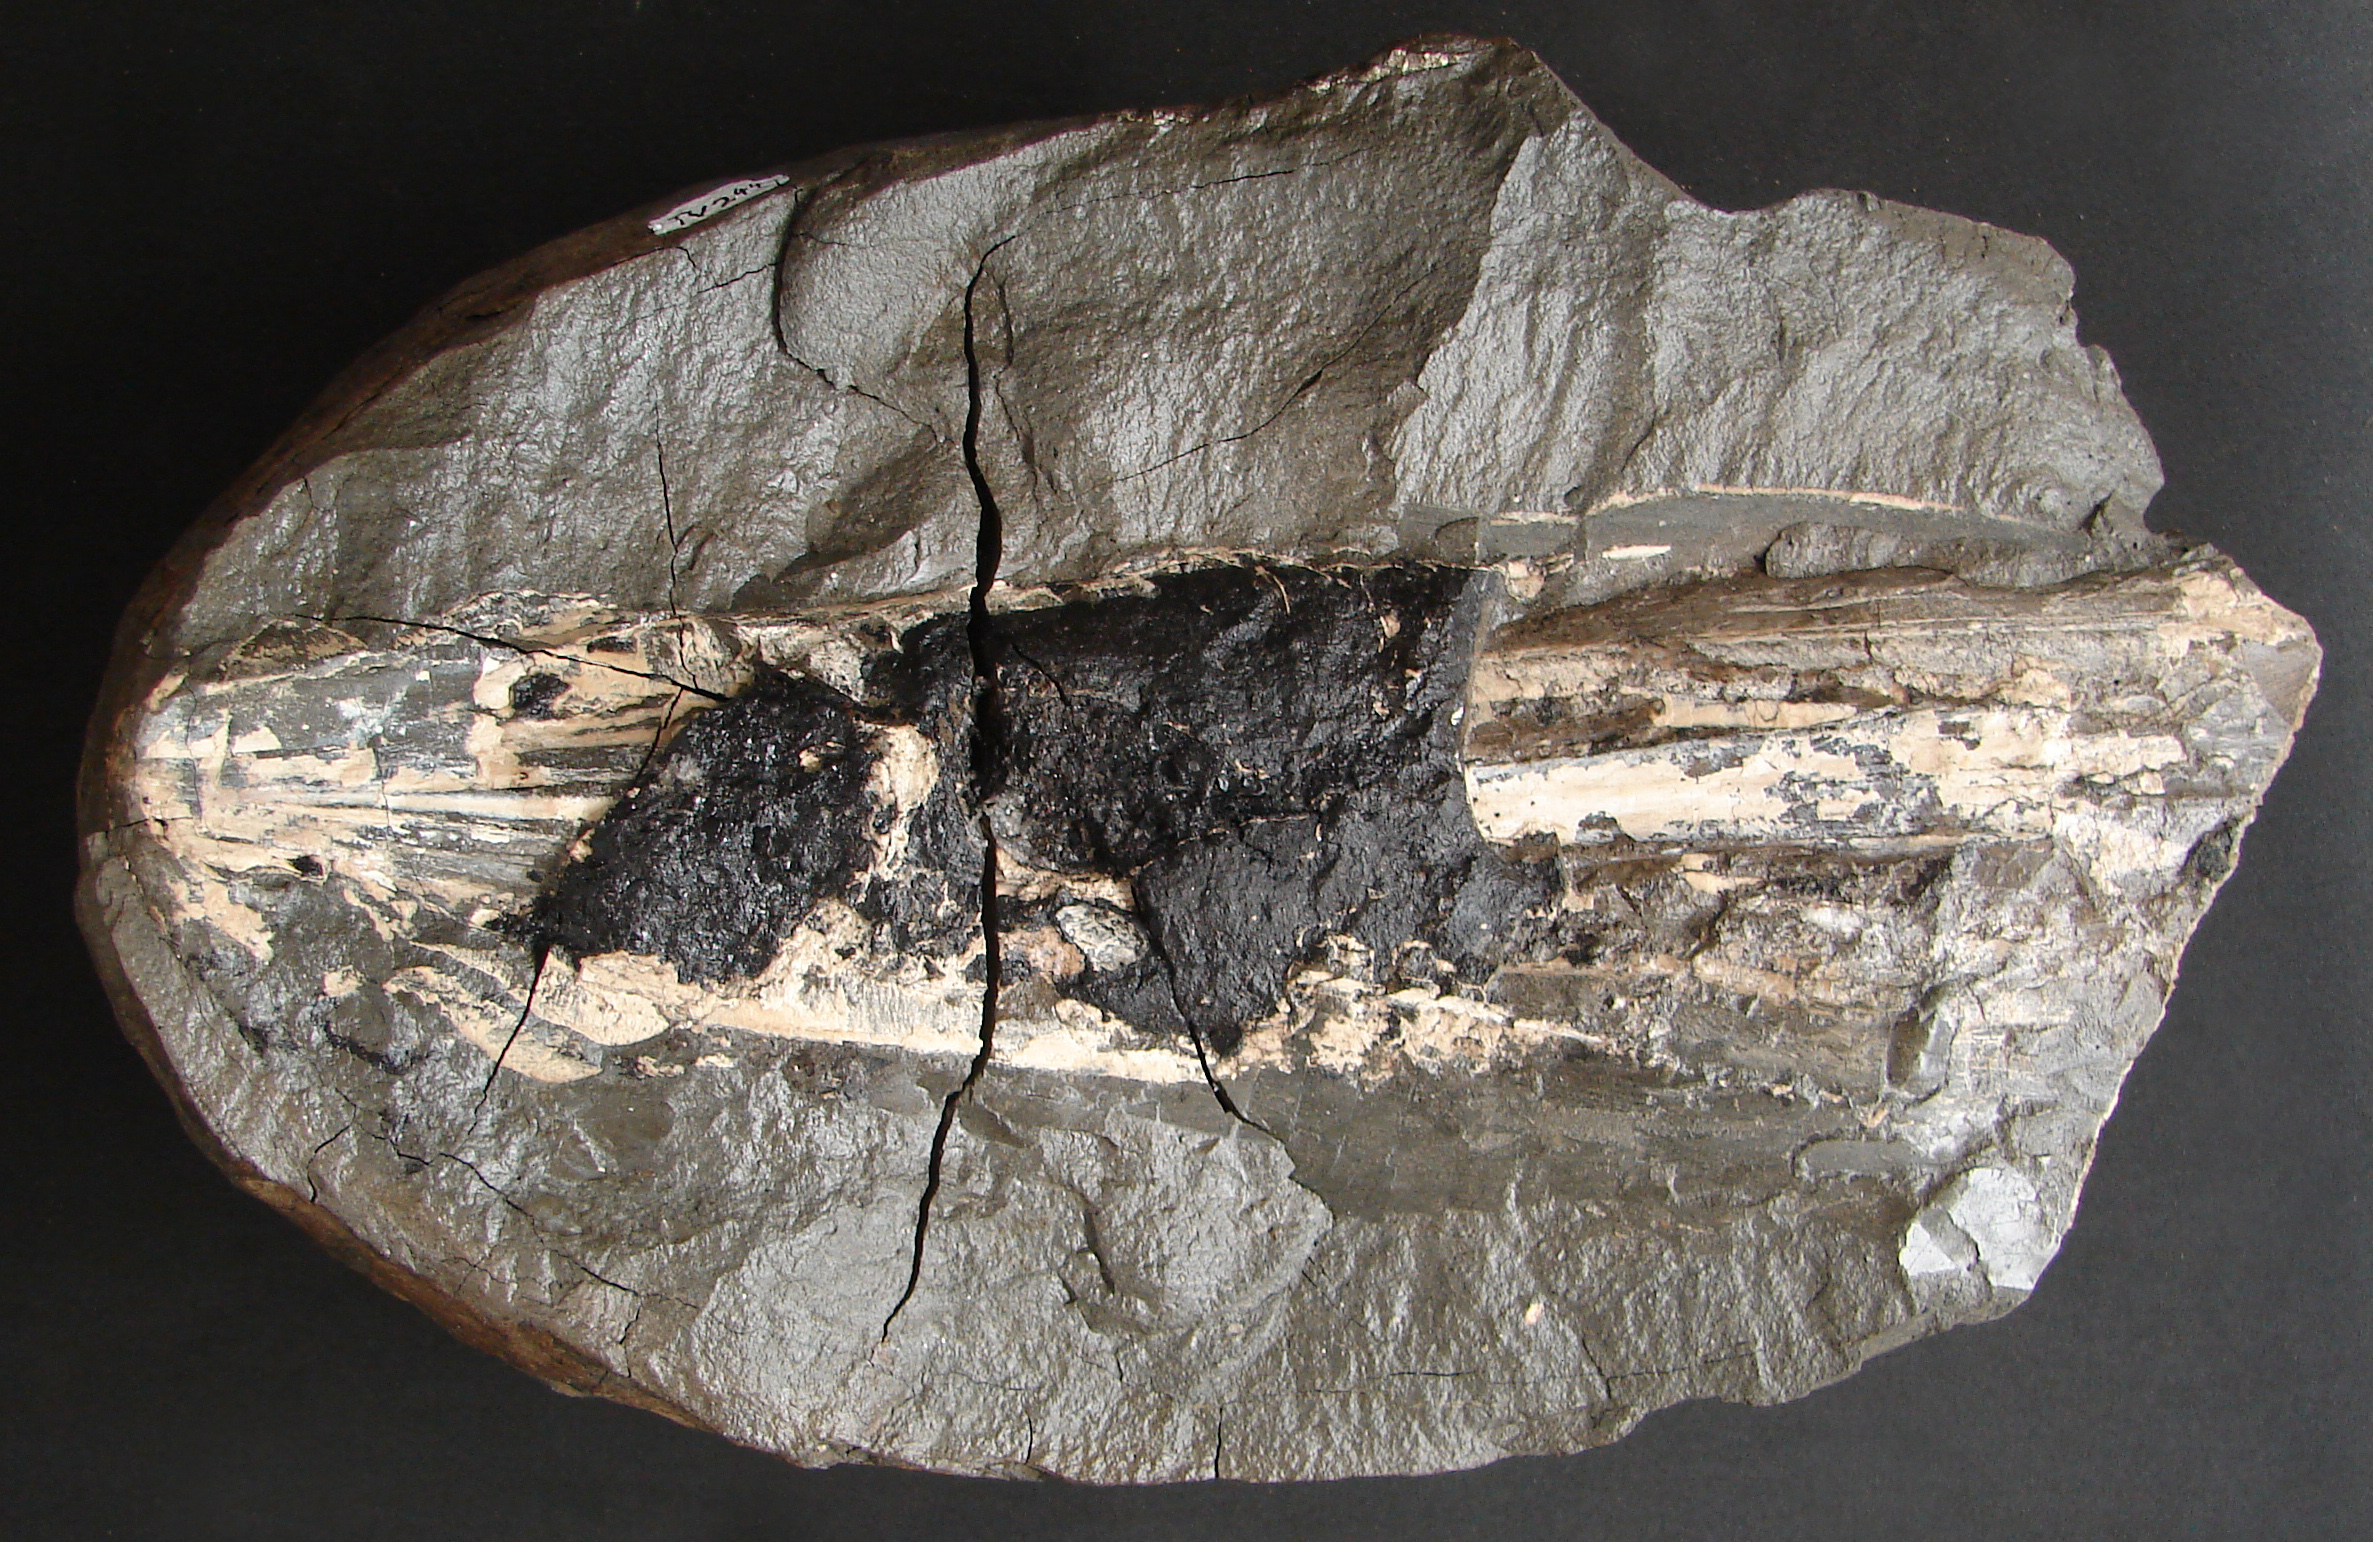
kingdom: Animalia
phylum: Mollusca
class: Cephalopoda
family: Loligosepiidae
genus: Loligosepia
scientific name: Loligosepia
